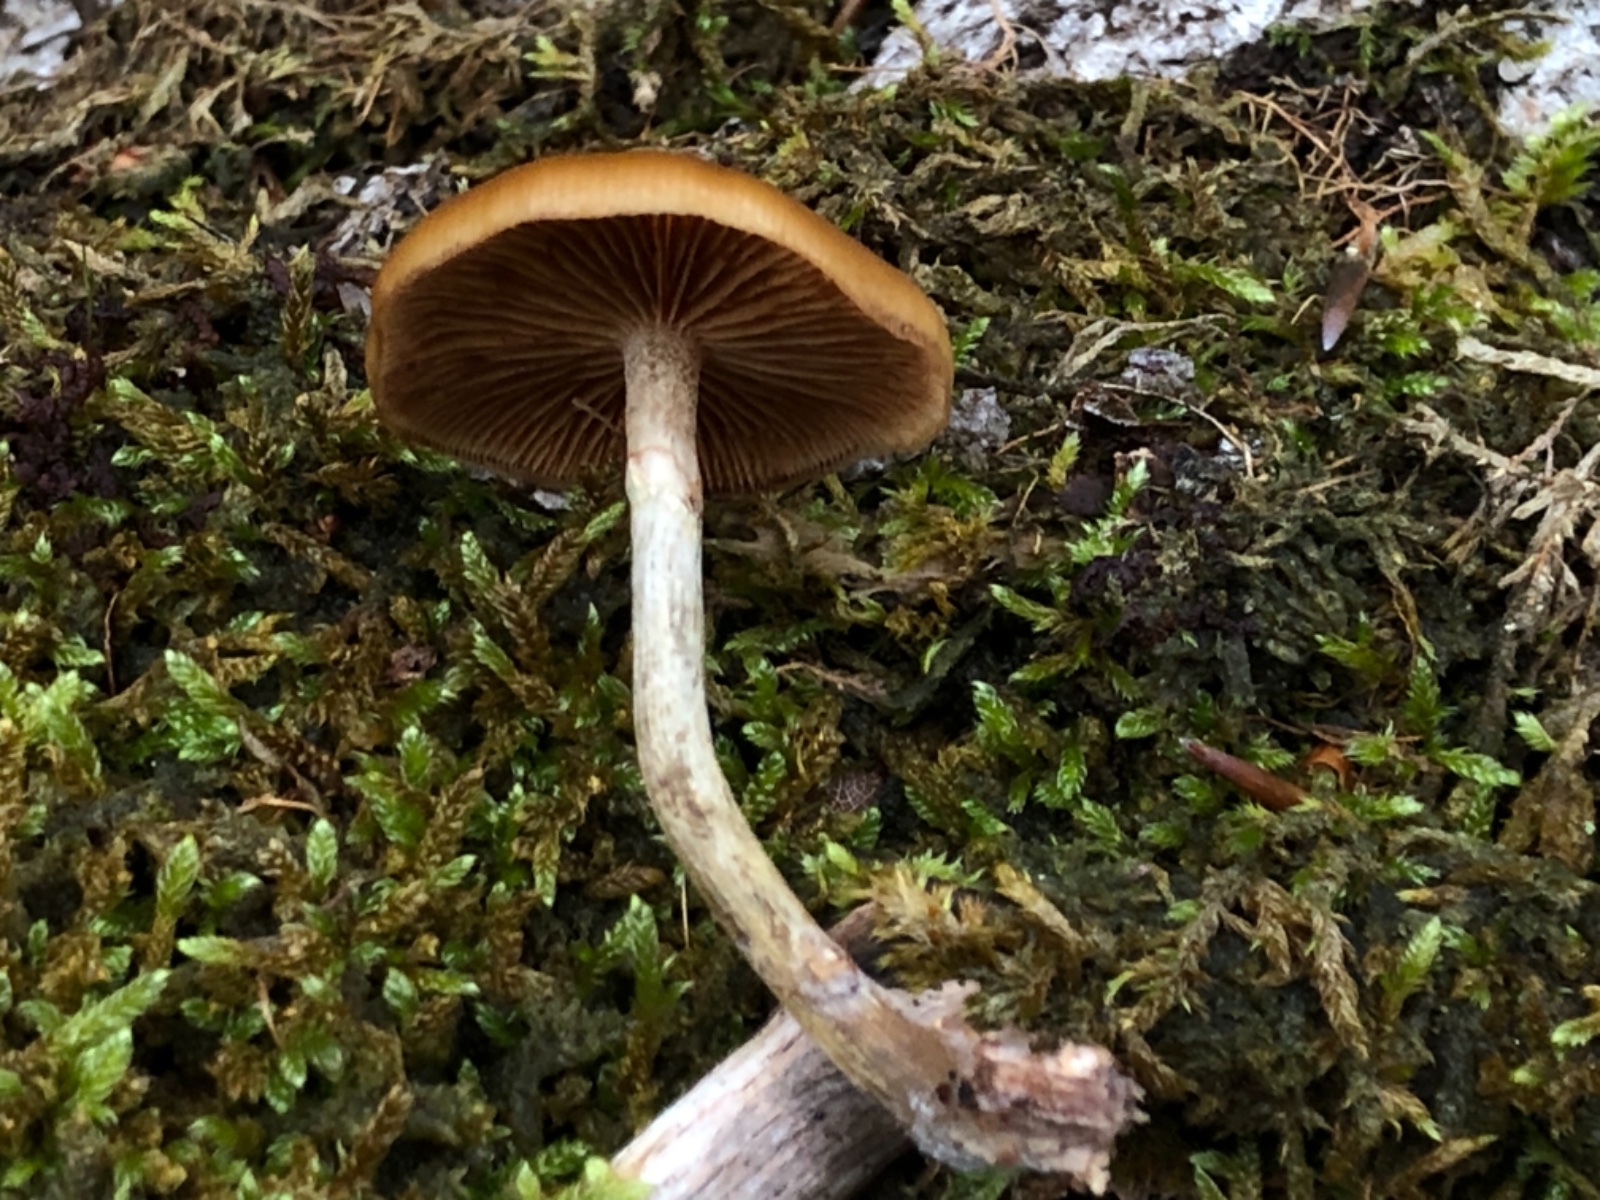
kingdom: Fungi
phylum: Basidiomycota
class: Agaricomycetes
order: Agaricales
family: Hymenogastraceae
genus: Galerina
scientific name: Galerina marginata
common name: randbæltet hjelmhat
